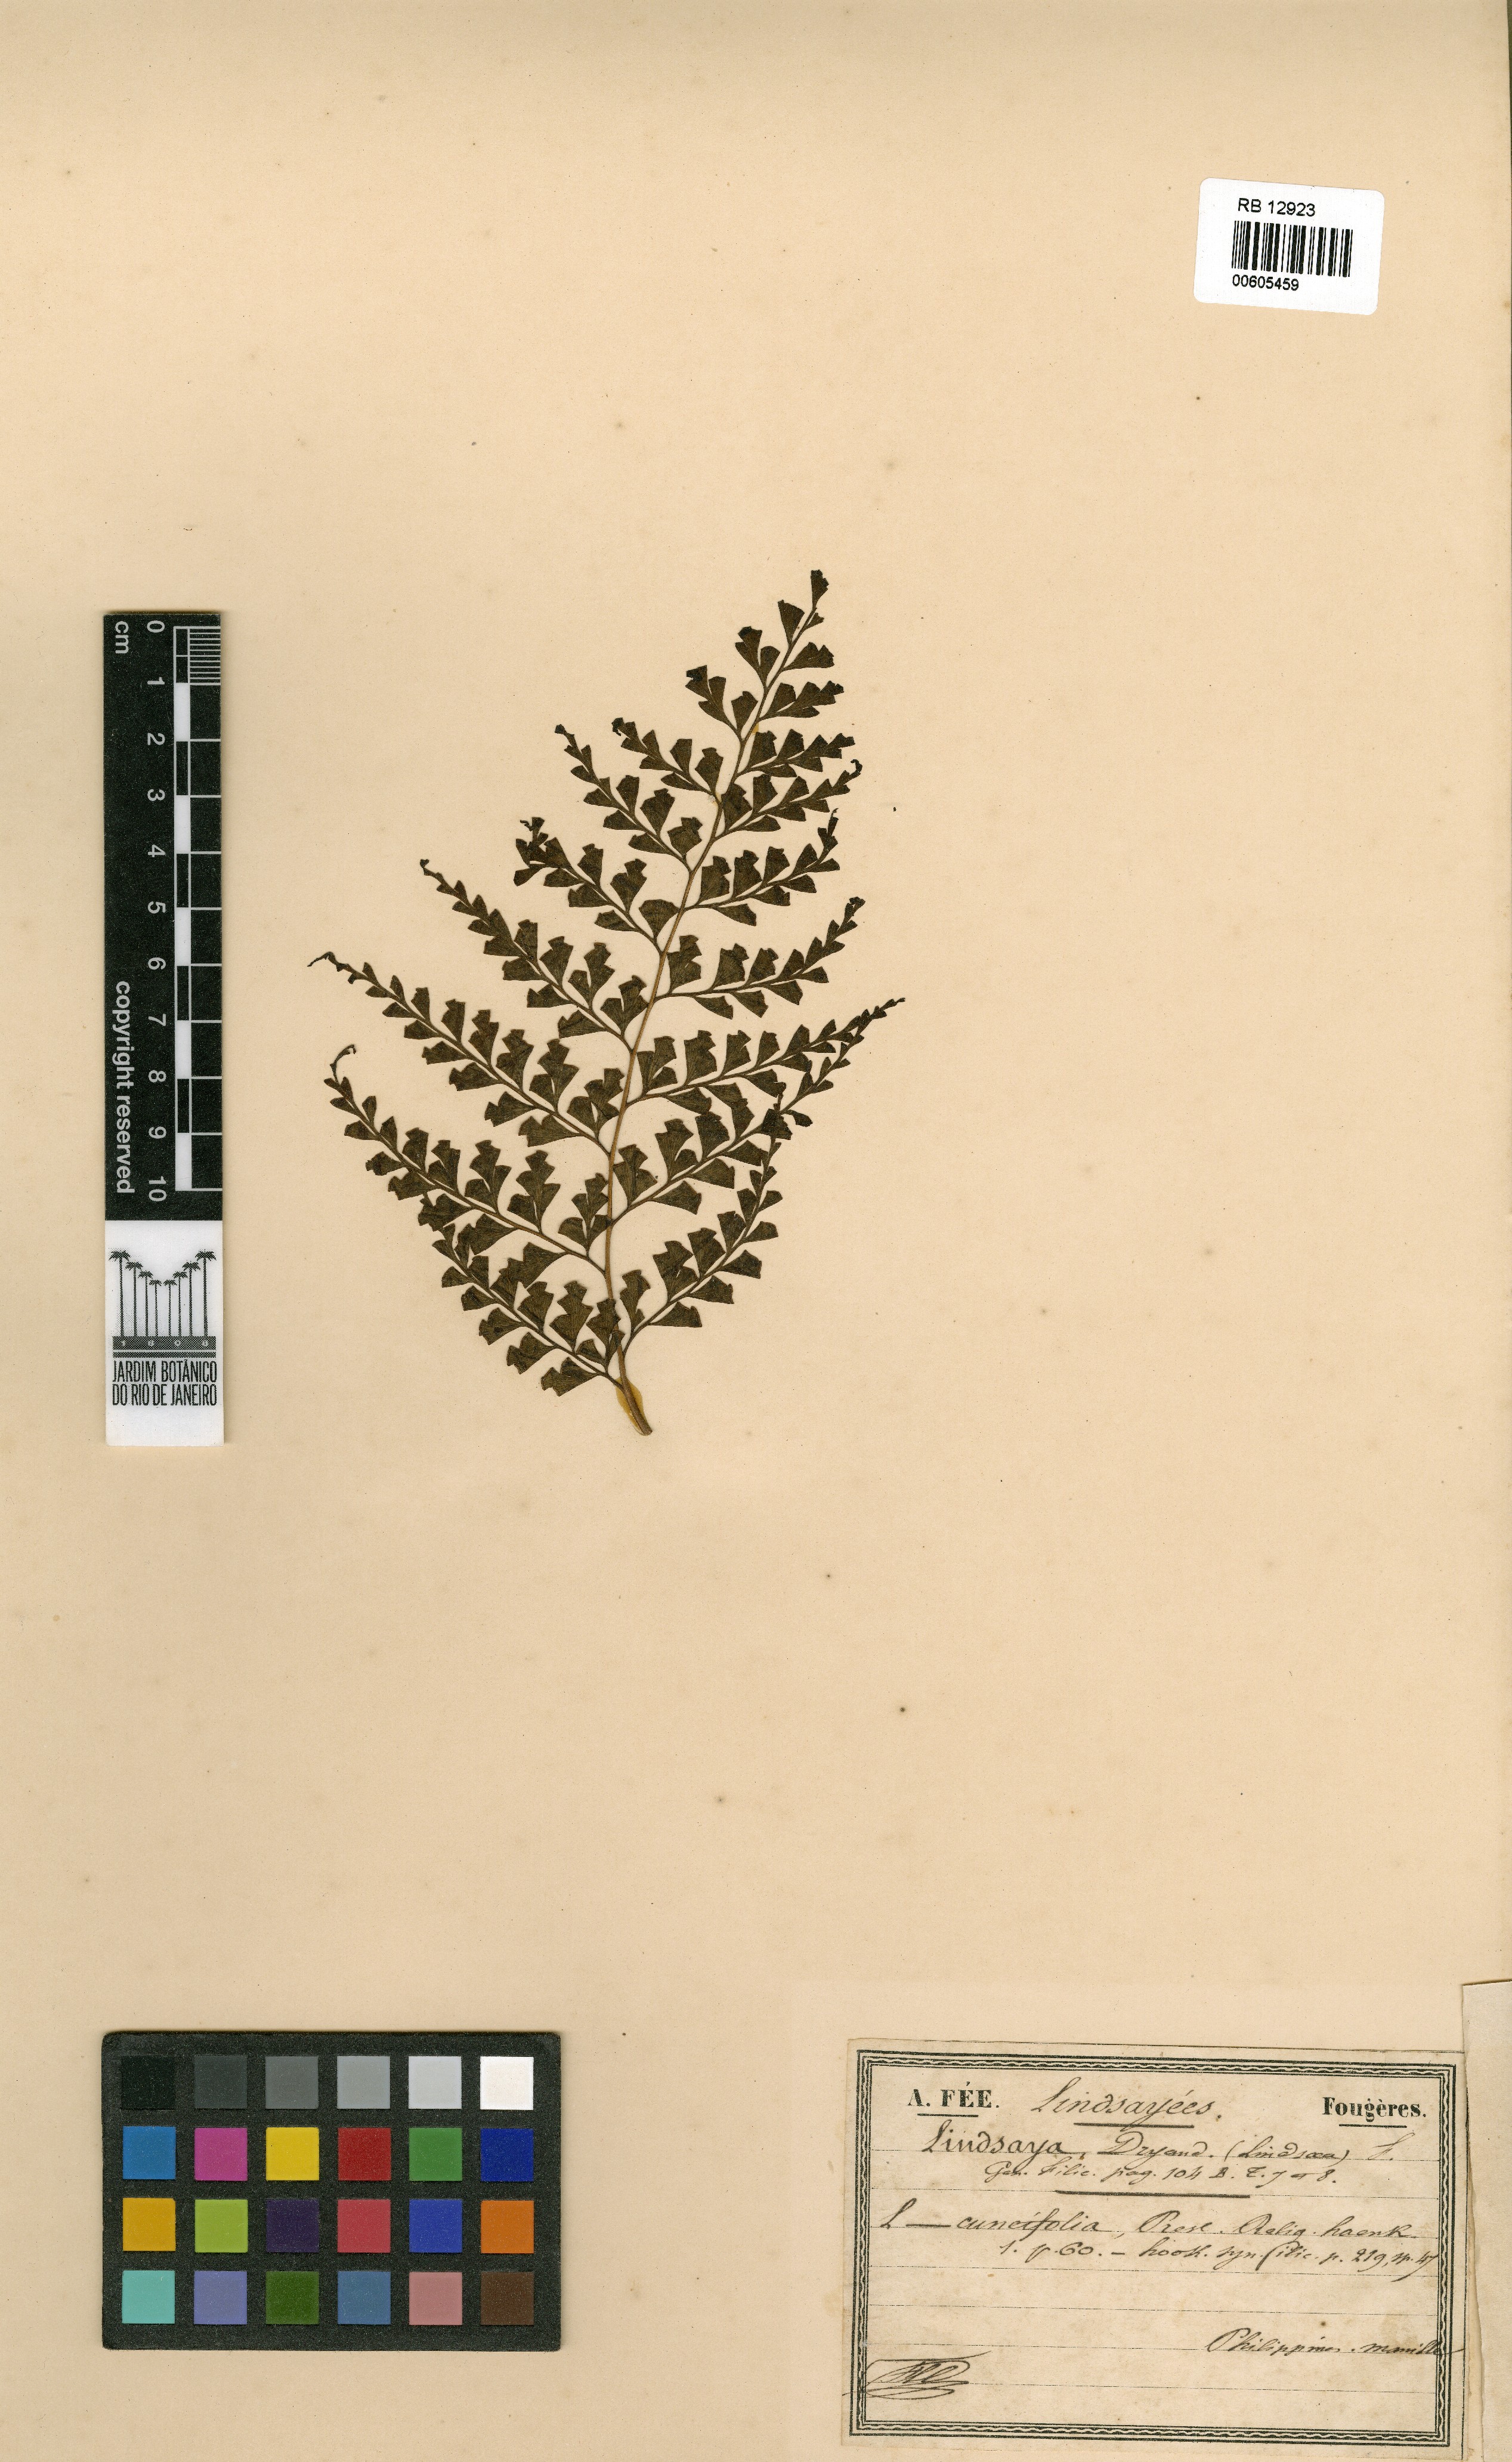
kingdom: Plantae
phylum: Tracheophyta
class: Polypodiopsida
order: Polypodiales
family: Lindsaeaceae
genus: Odontosoria
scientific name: Odontosoria retusa
